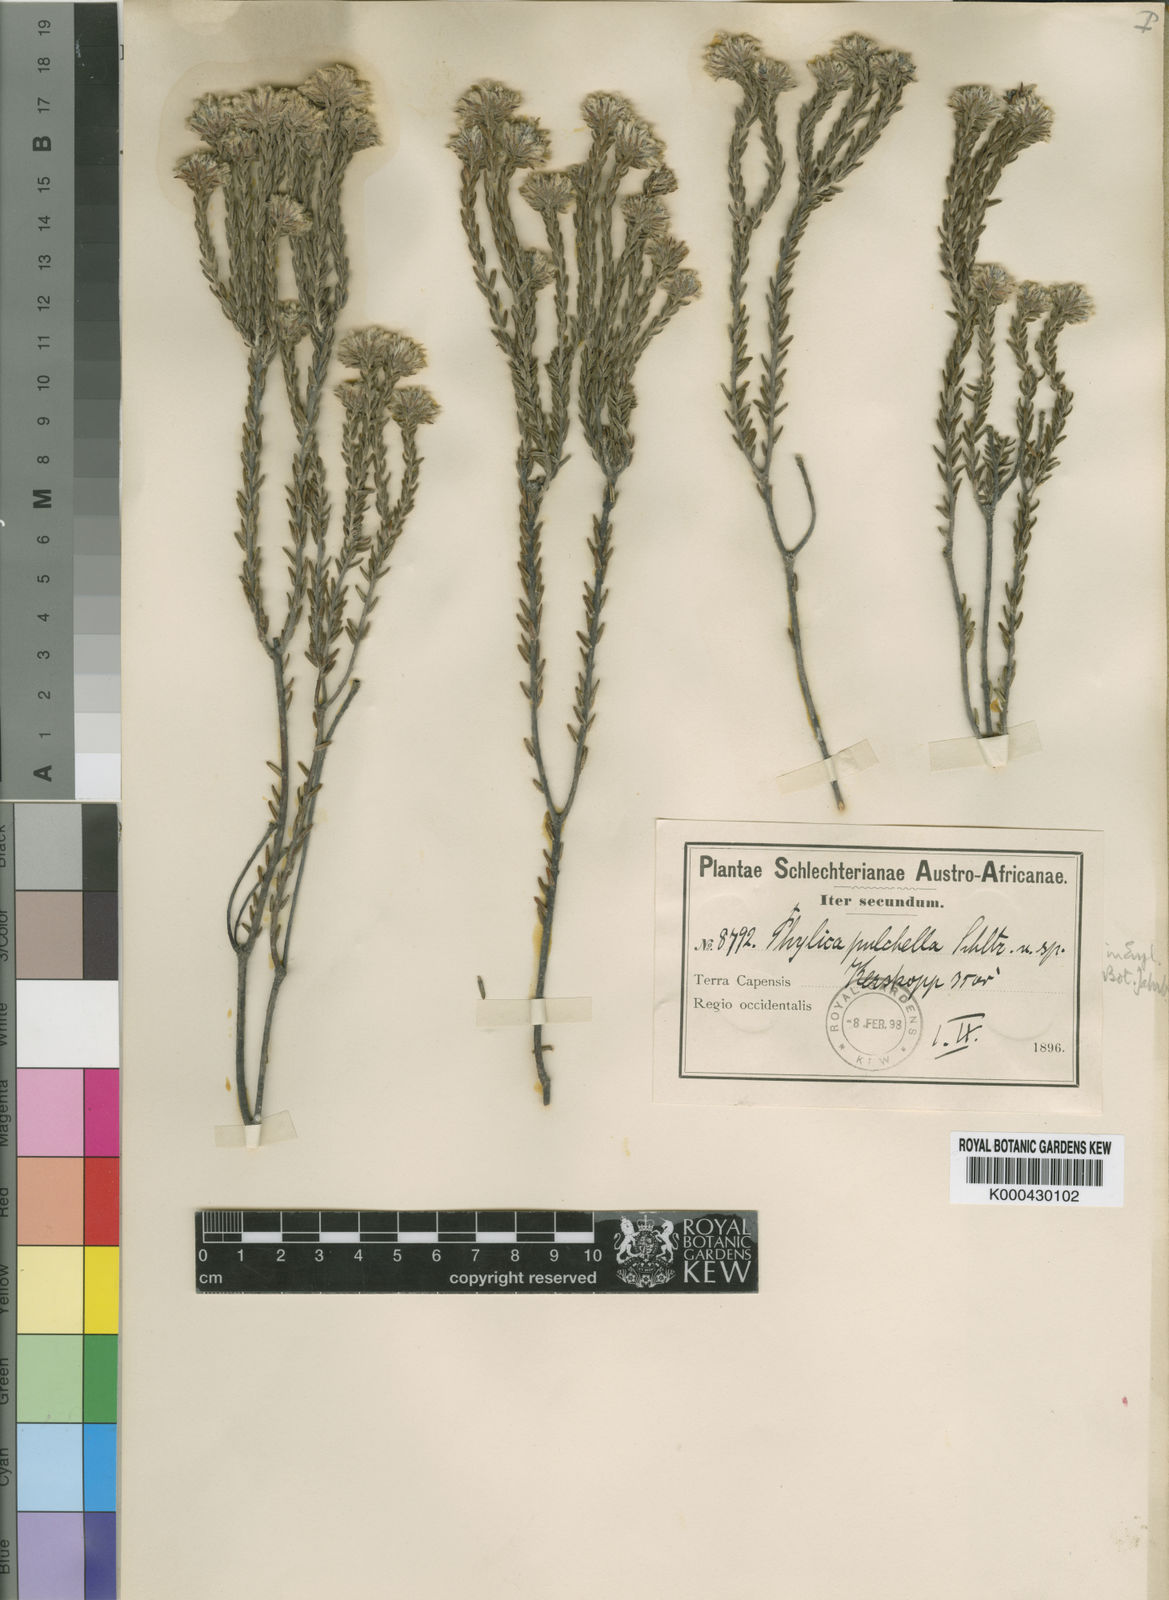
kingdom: Plantae
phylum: Tracheophyta
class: Magnoliopsida
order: Rosales
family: Rhamnaceae
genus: Phylica
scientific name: Phylica pulchella
